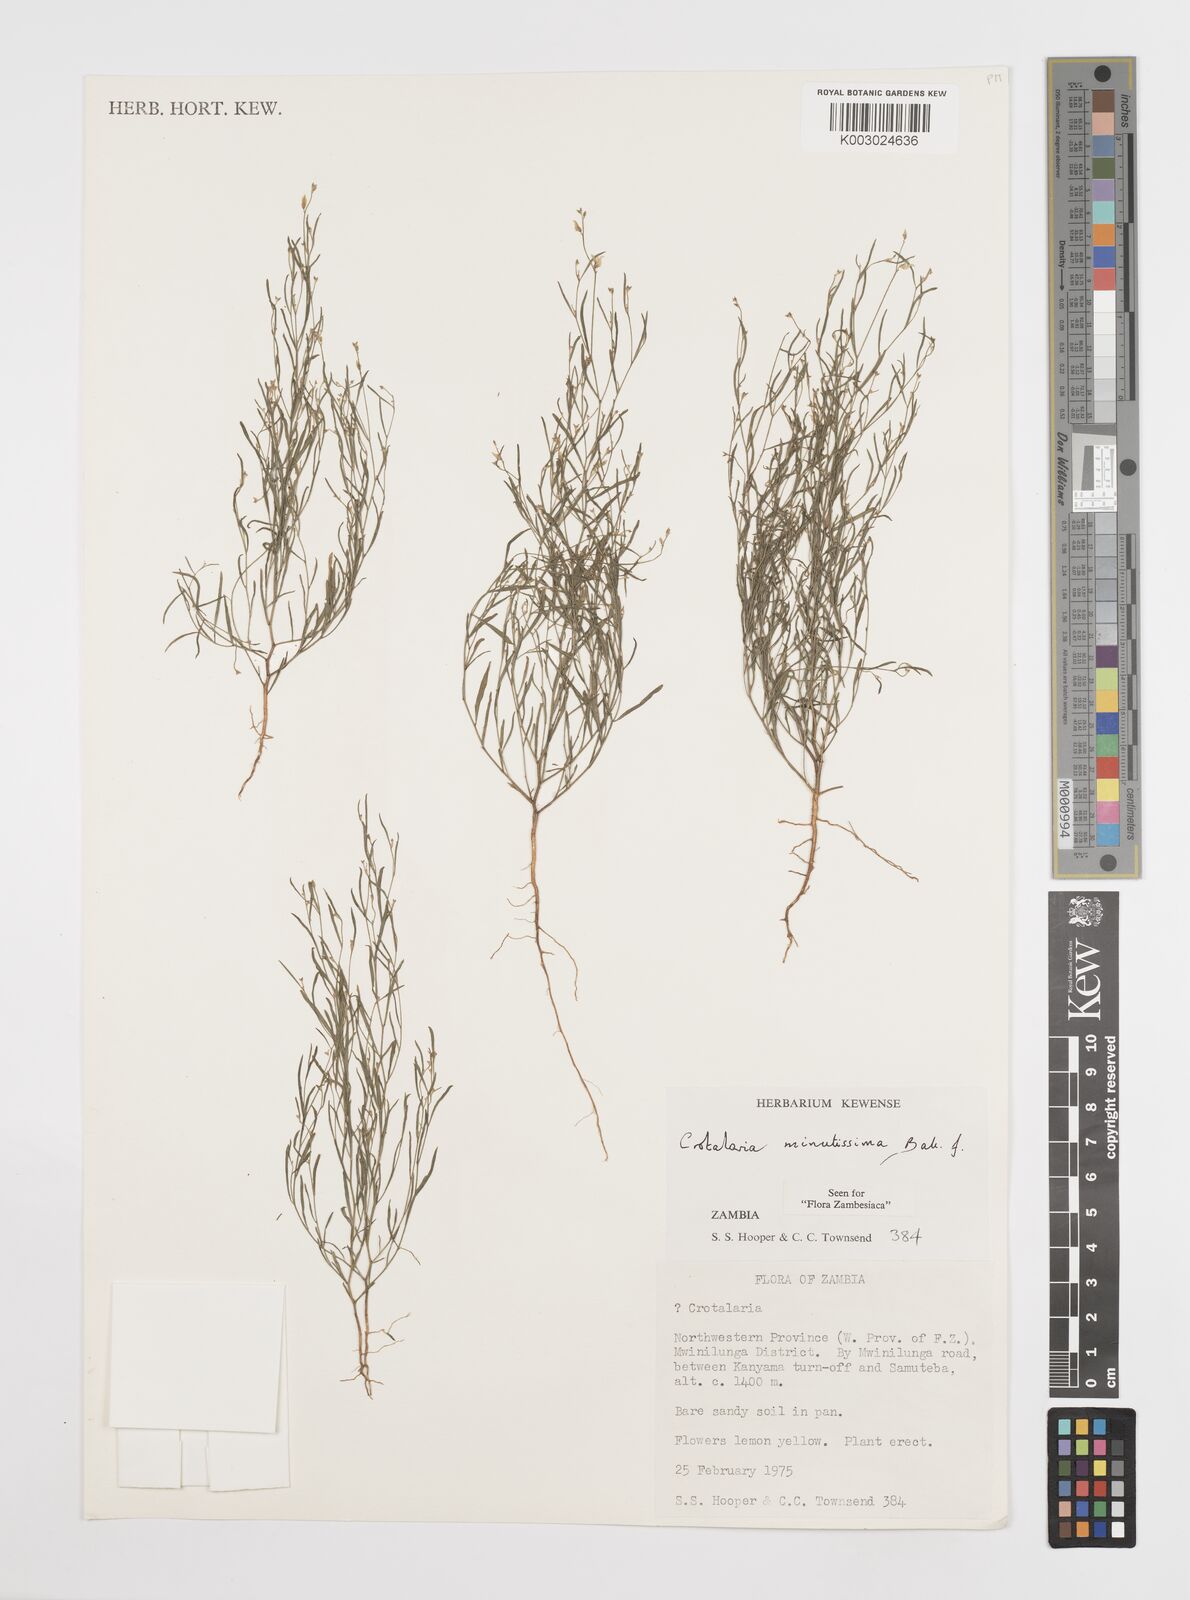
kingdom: Plantae
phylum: Tracheophyta
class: Magnoliopsida
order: Fabales
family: Fabaceae
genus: Crotalaria
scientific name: Crotalaria minutissima
